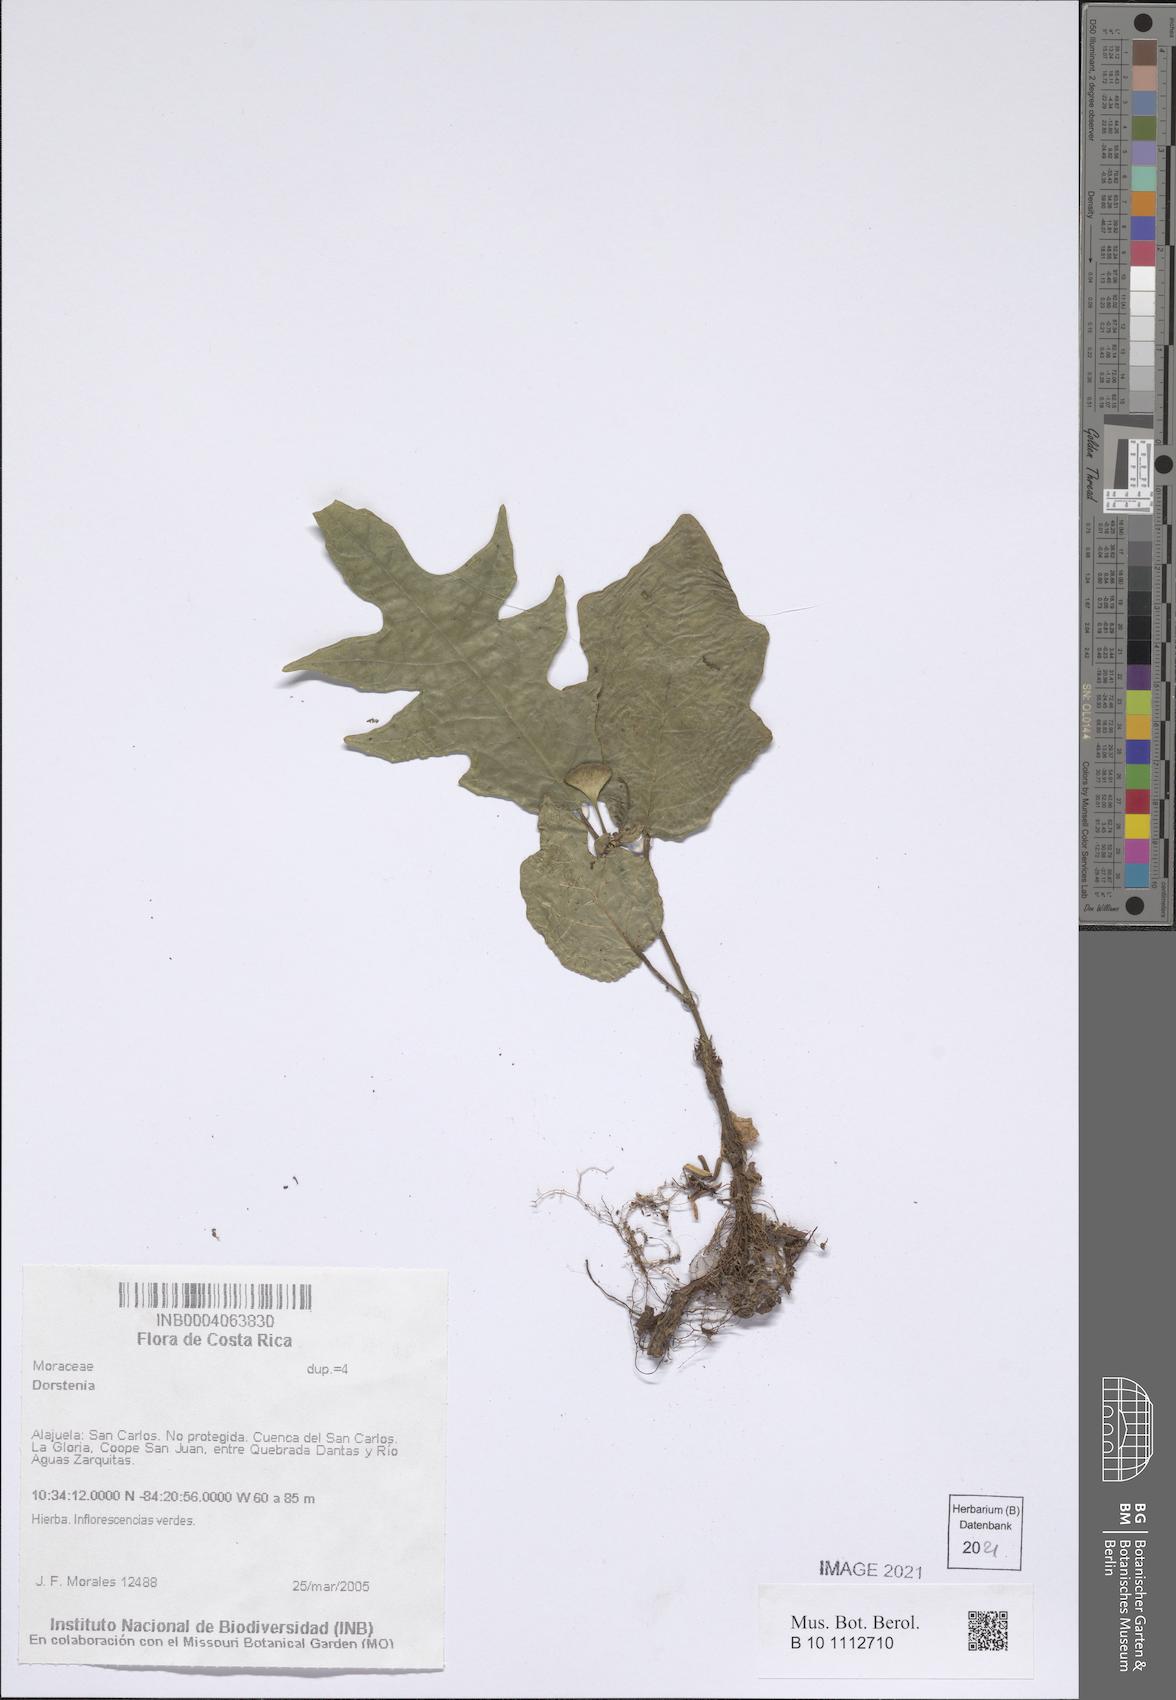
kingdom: Plantae
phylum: Tracheophyta
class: Magnoliopsida
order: Rosales
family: Moraceae
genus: Dorstenia
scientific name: Dorstenia
